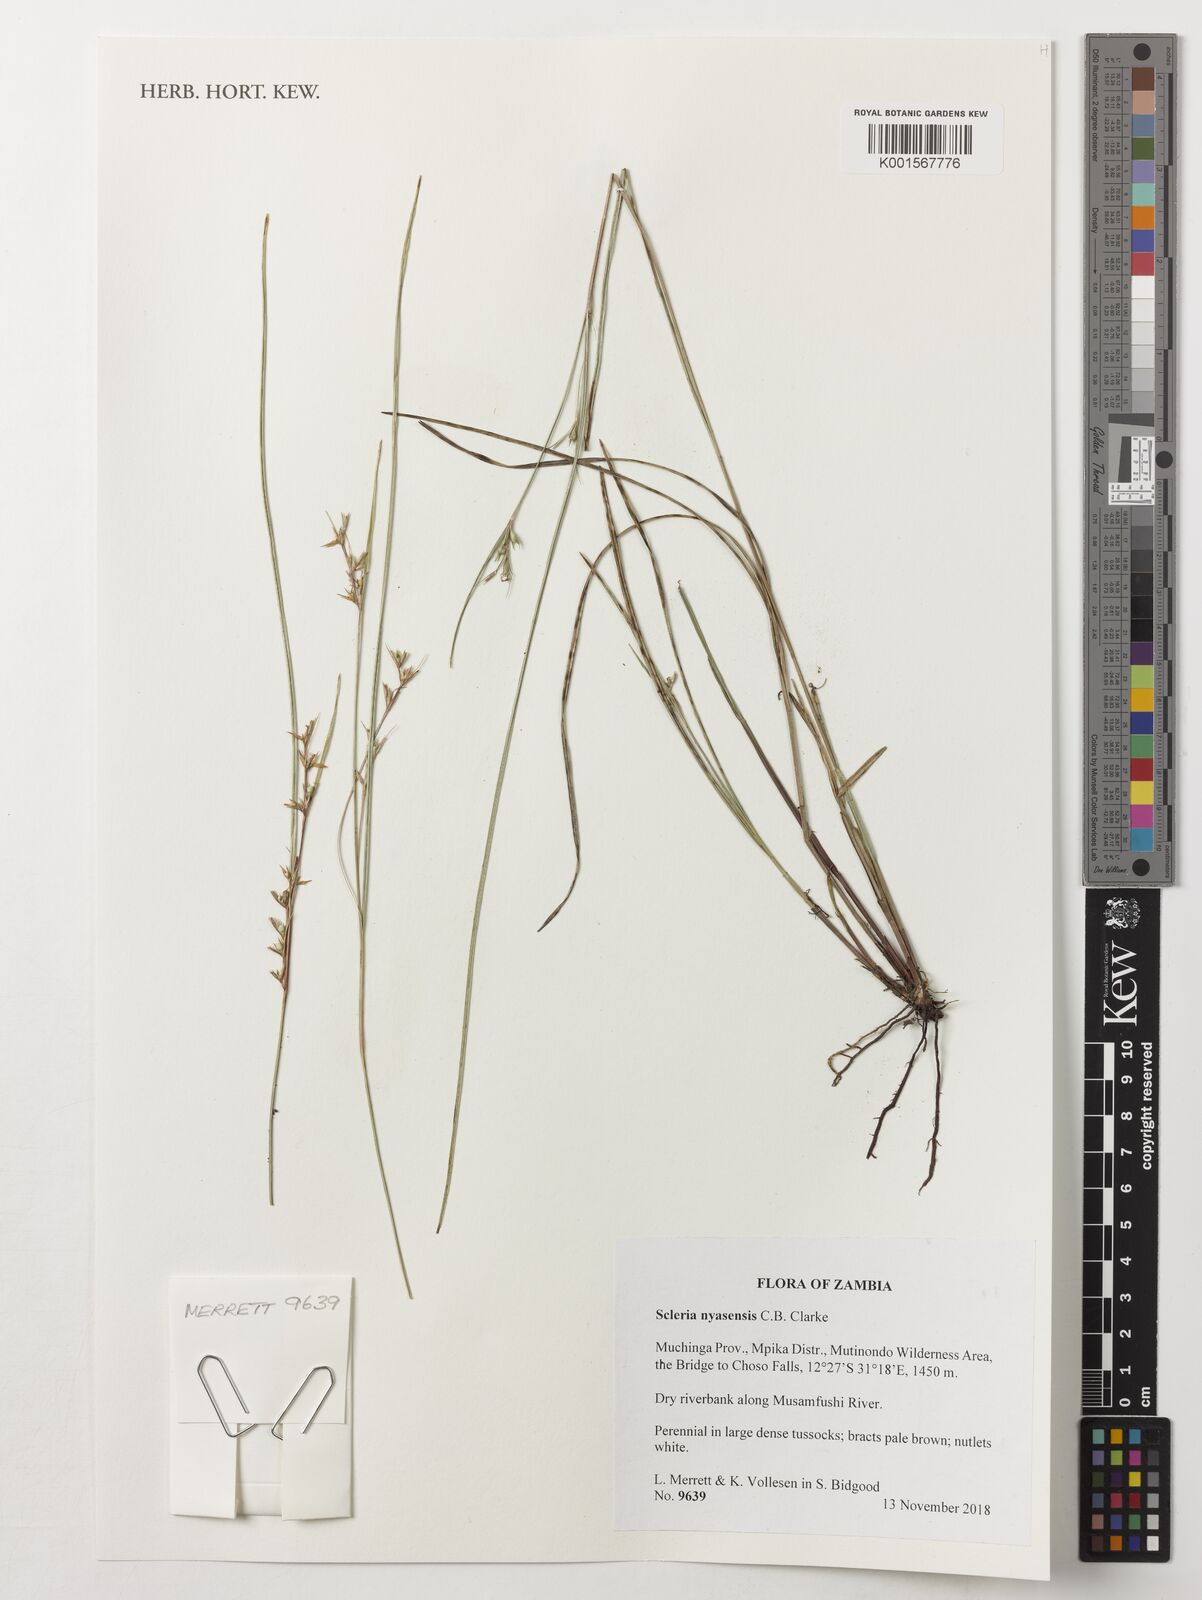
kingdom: Plantae
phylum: Tracheophyta
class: Liliopsida
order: Poales
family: Cyperaceae
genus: Scleria
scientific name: Scleria nyasensis
